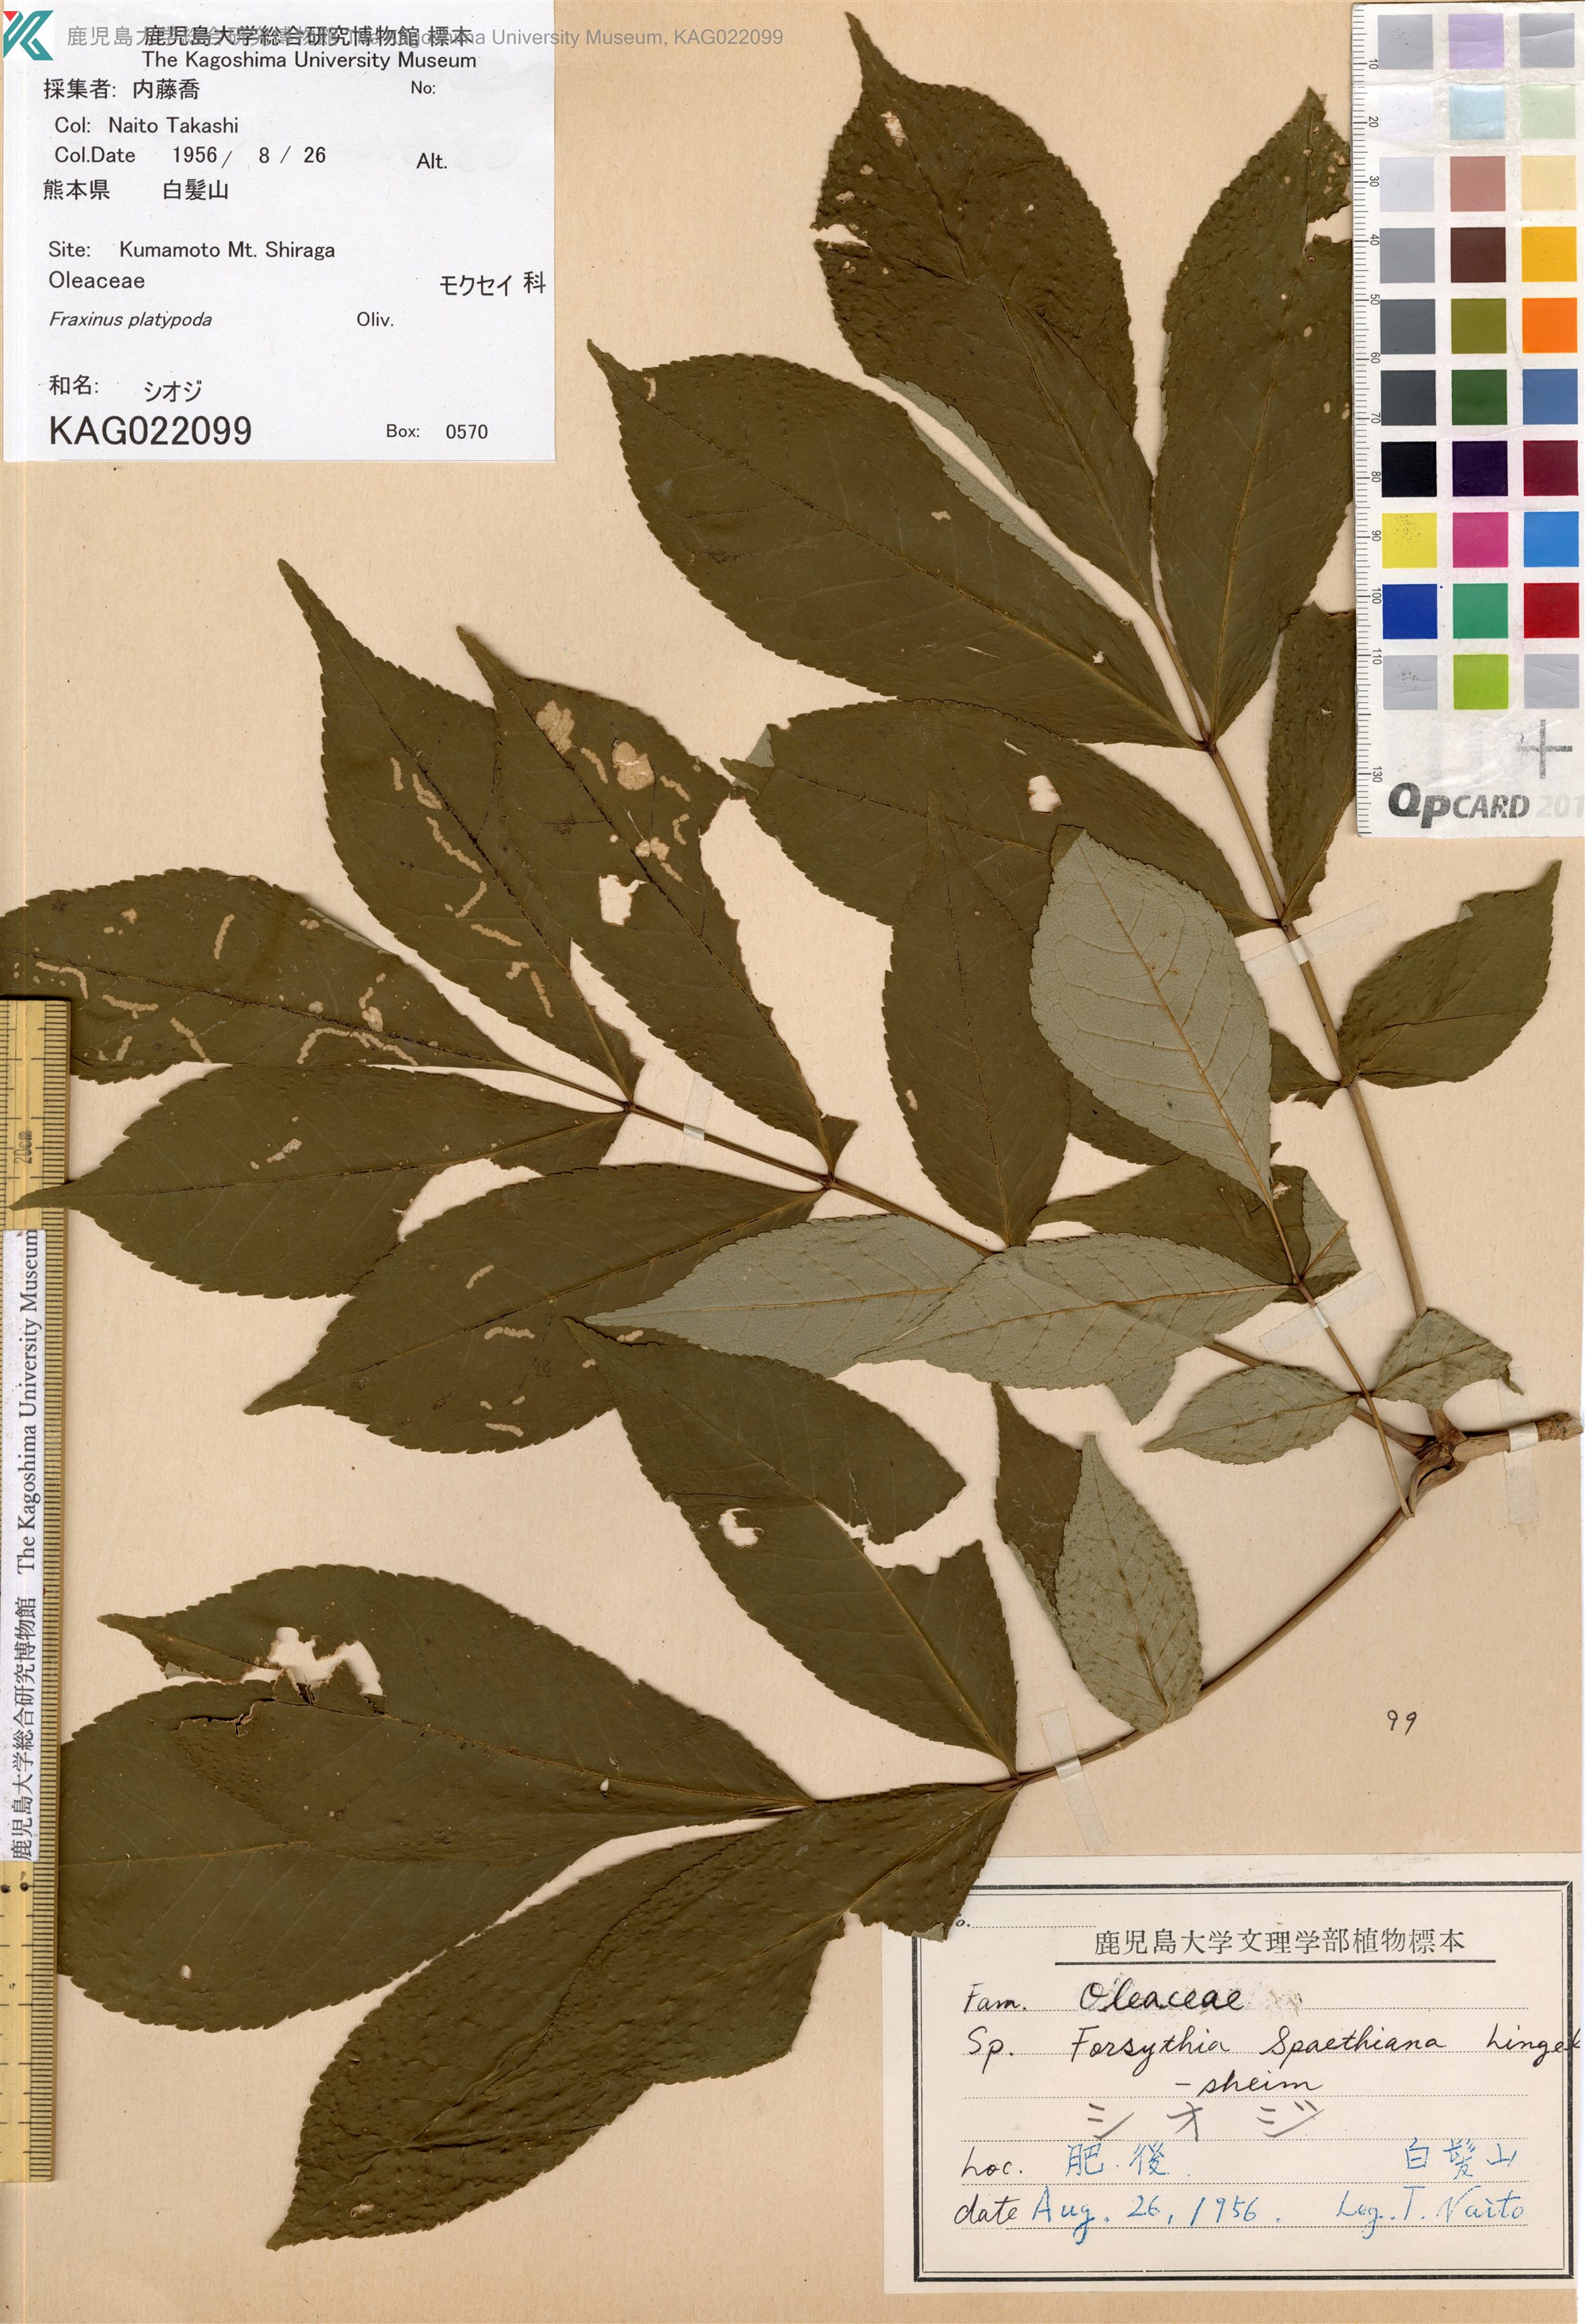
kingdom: Plantae
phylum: Tracheophyta
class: Magnoliopsida
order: Lamiales
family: Oleaceae
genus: Fraxinus
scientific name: Fraxinus platypoda
